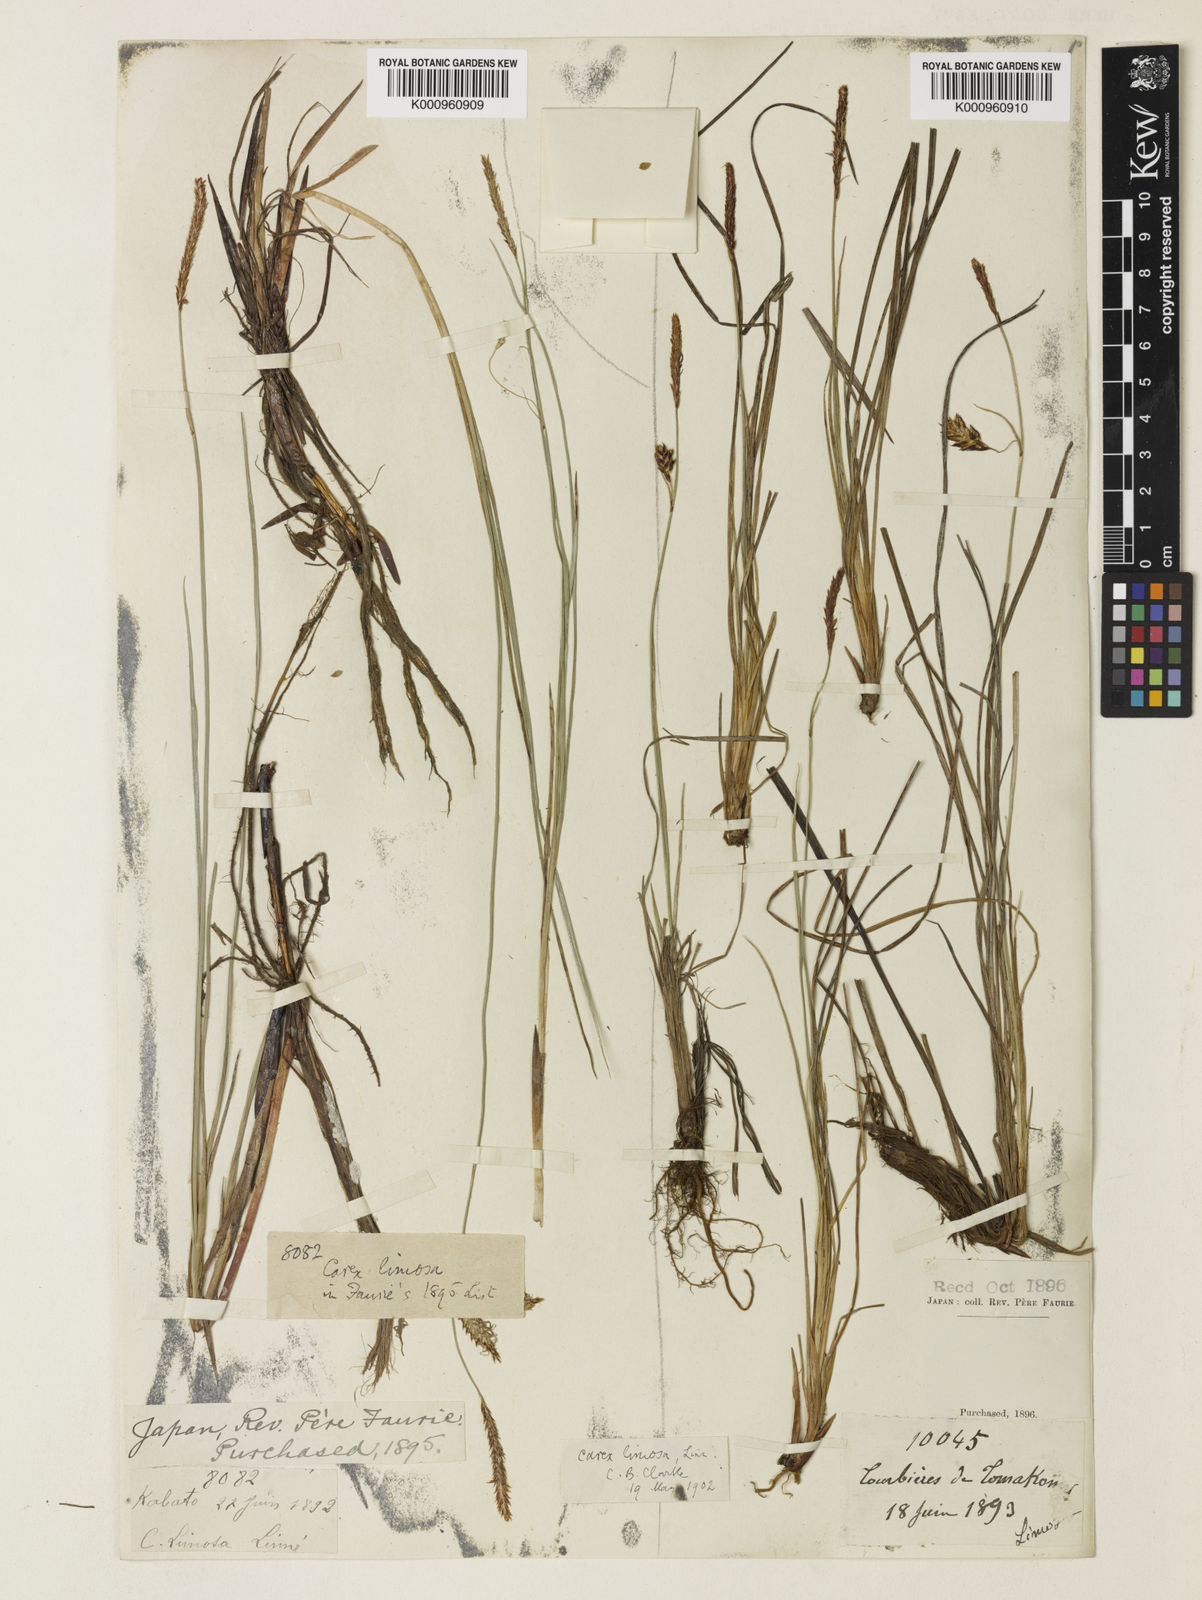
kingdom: Plantae
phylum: Tracheophyta
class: Liliopsida
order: Poales
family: Cyperaceae
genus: Carex
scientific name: Carex limosa
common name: Bog sedge
